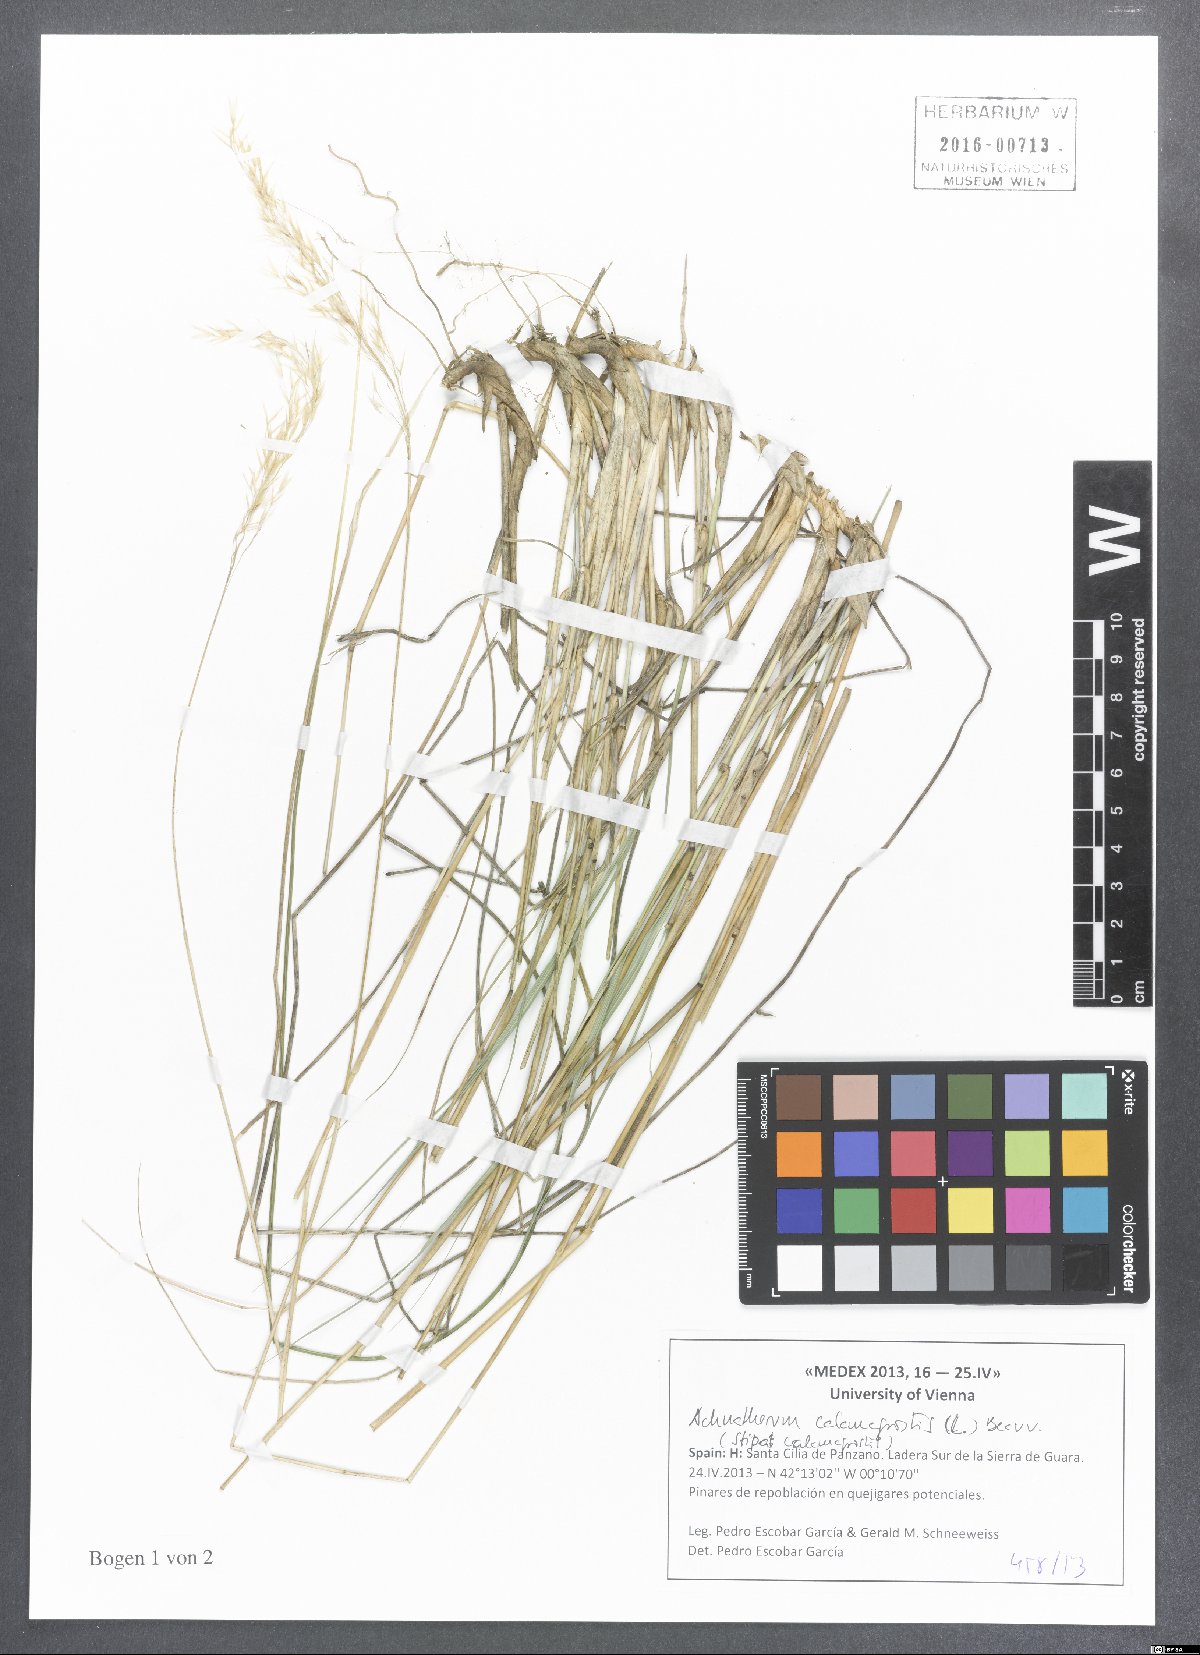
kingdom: Plantae
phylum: Tracheophyta
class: Liliopsida
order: Poales
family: Poaceae
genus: Achnatherum
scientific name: Achnatherum calamagrostis
